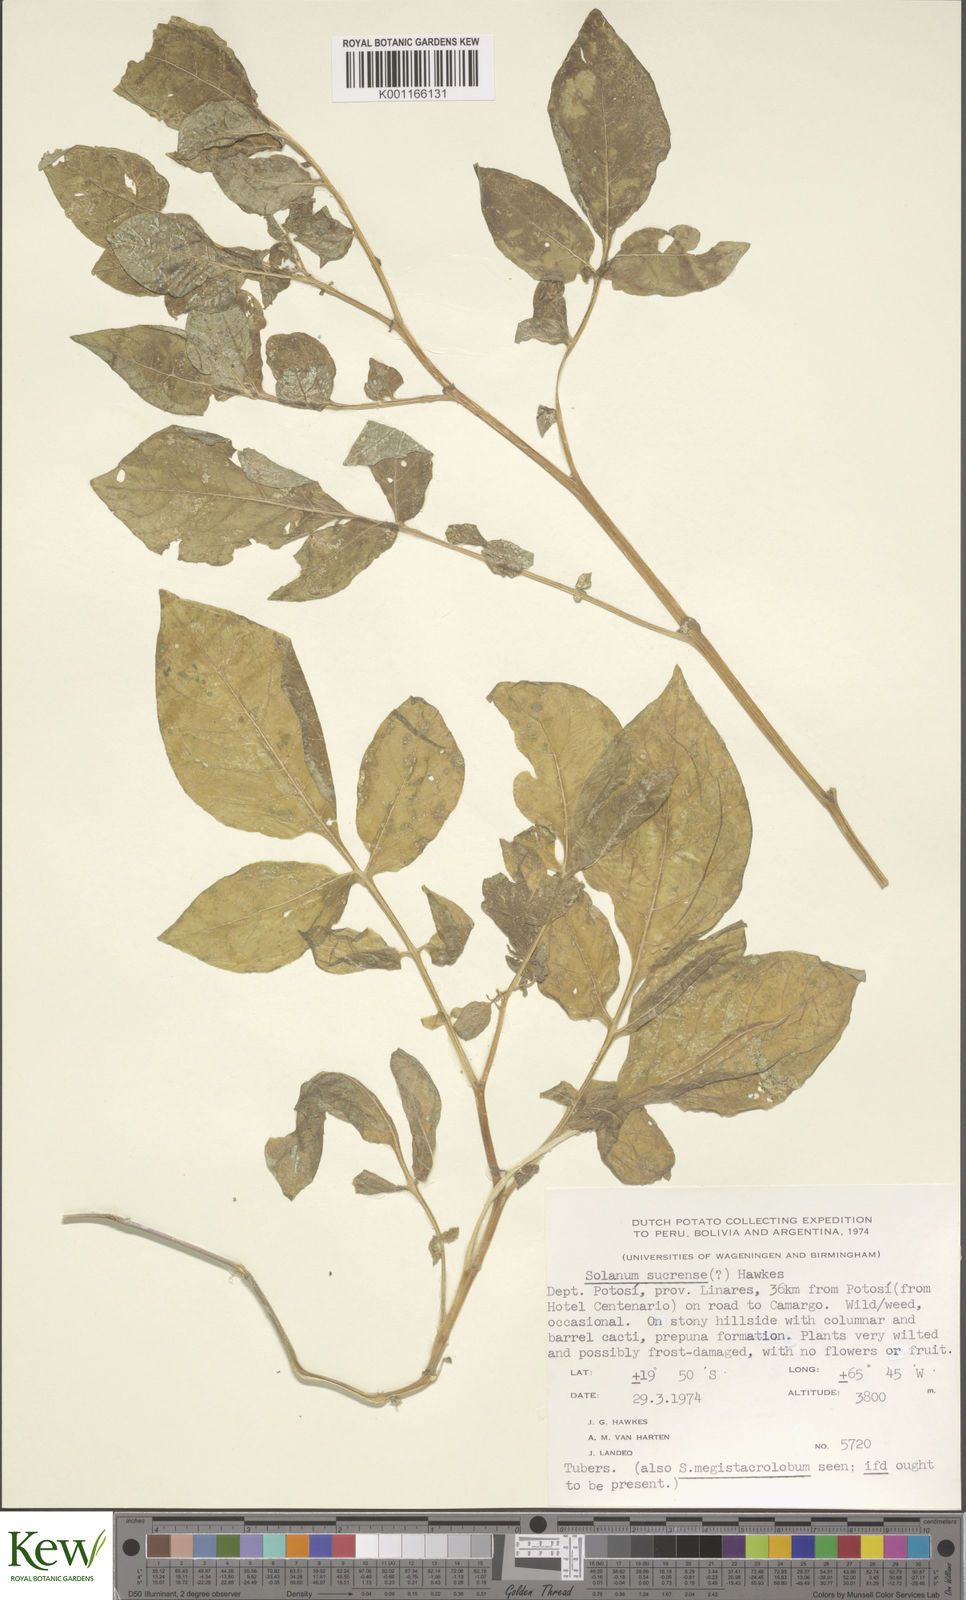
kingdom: Plantae
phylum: Tracheophyta
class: Magnoliopsida
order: Solanales
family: Solanaceae
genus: Solanum
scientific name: Solanum brevicaule
